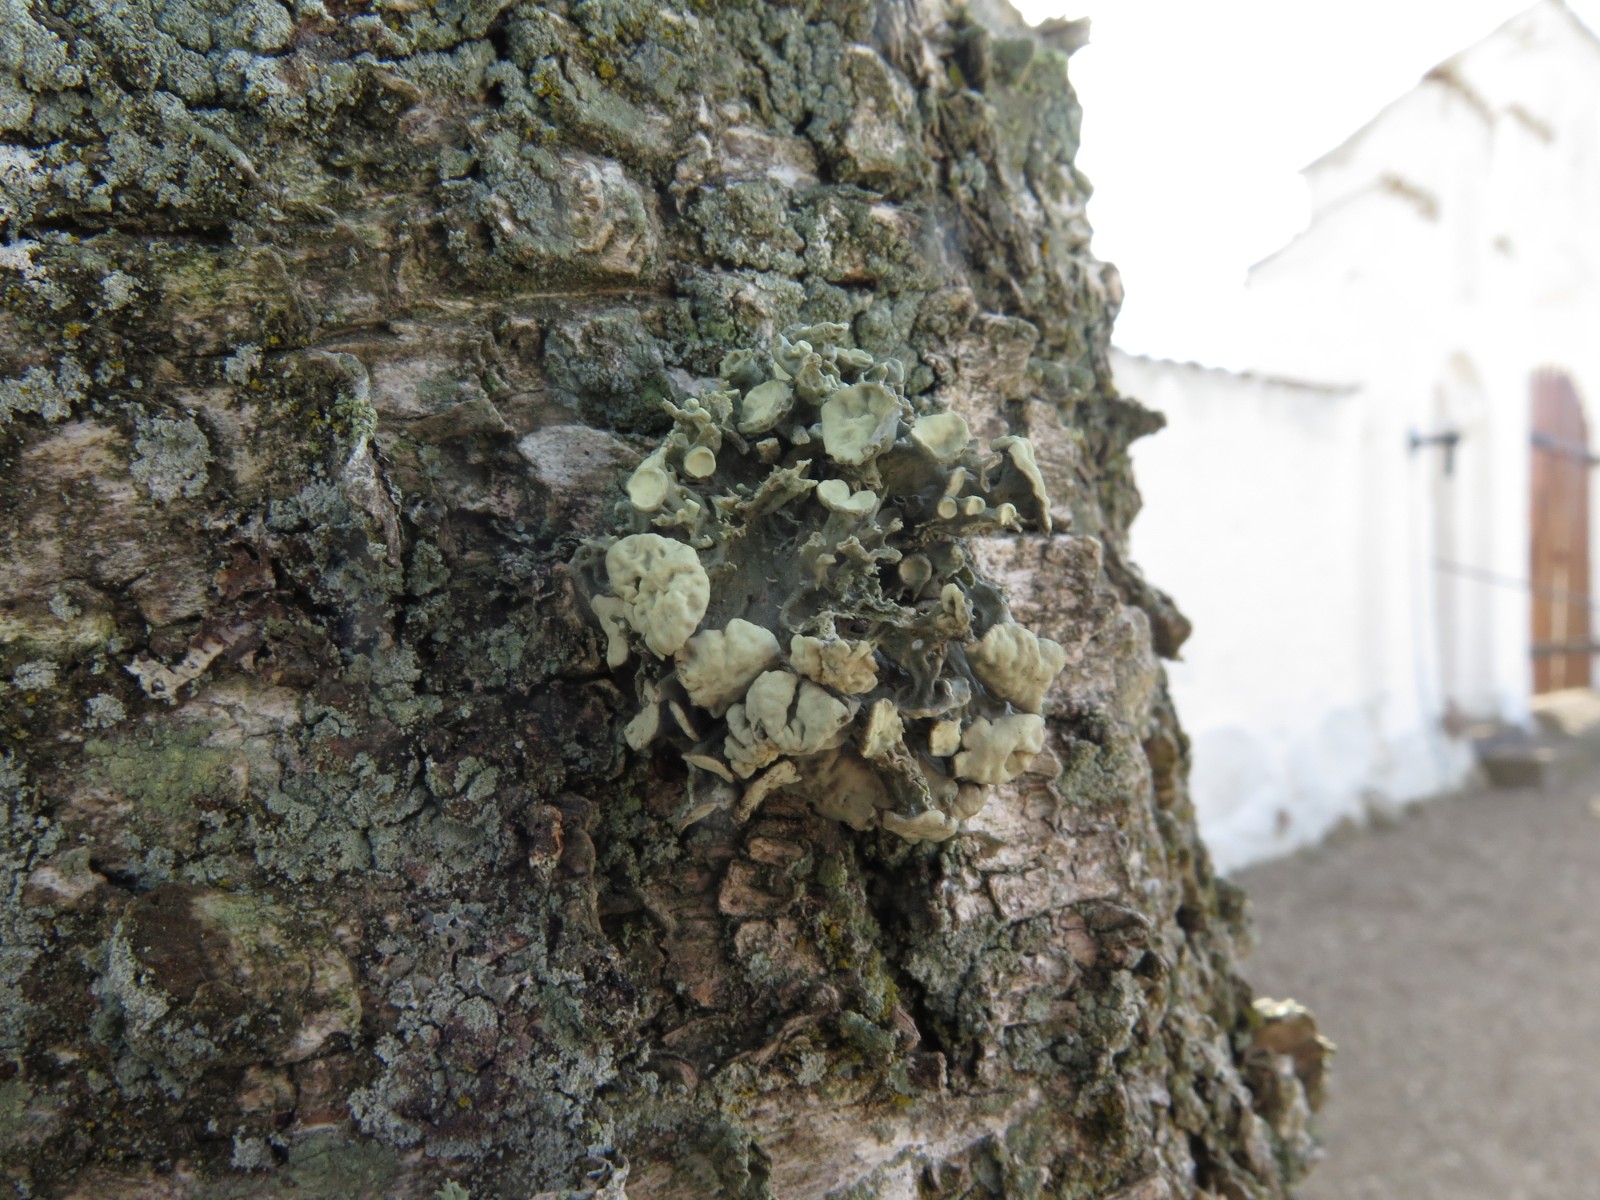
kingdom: Fungi
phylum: Ascomycota
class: Lecanoromycetes
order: Lecanorales
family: Ramalinaceae
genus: Ramalina
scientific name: Ramalina fastigiata
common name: tue-grenlav
